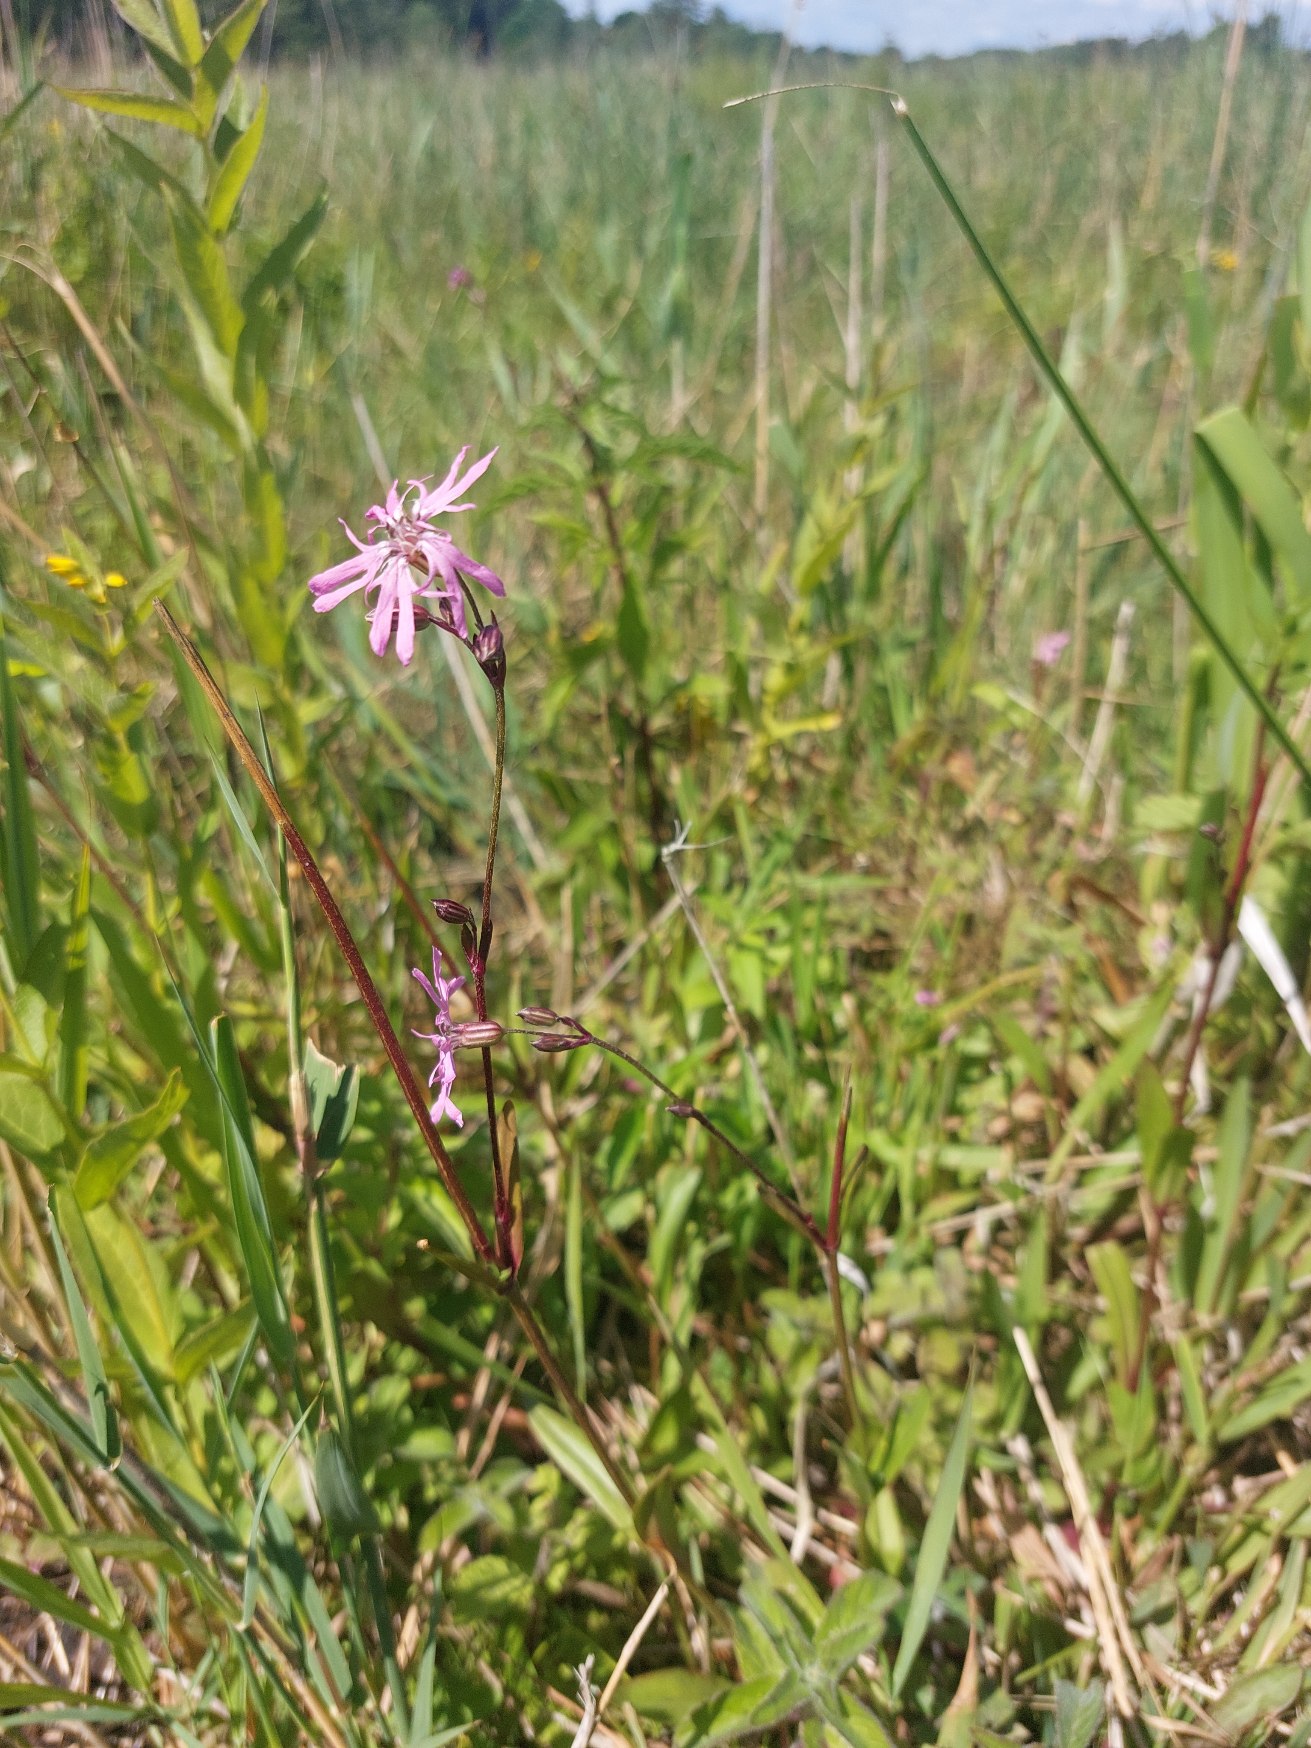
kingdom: Plantae
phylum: Tracheophyta
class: Magnoliopsida
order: Caryophyllales
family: Caryophyllaceae
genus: Silene
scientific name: Silene flos-cuculi
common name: Trævlekrone
